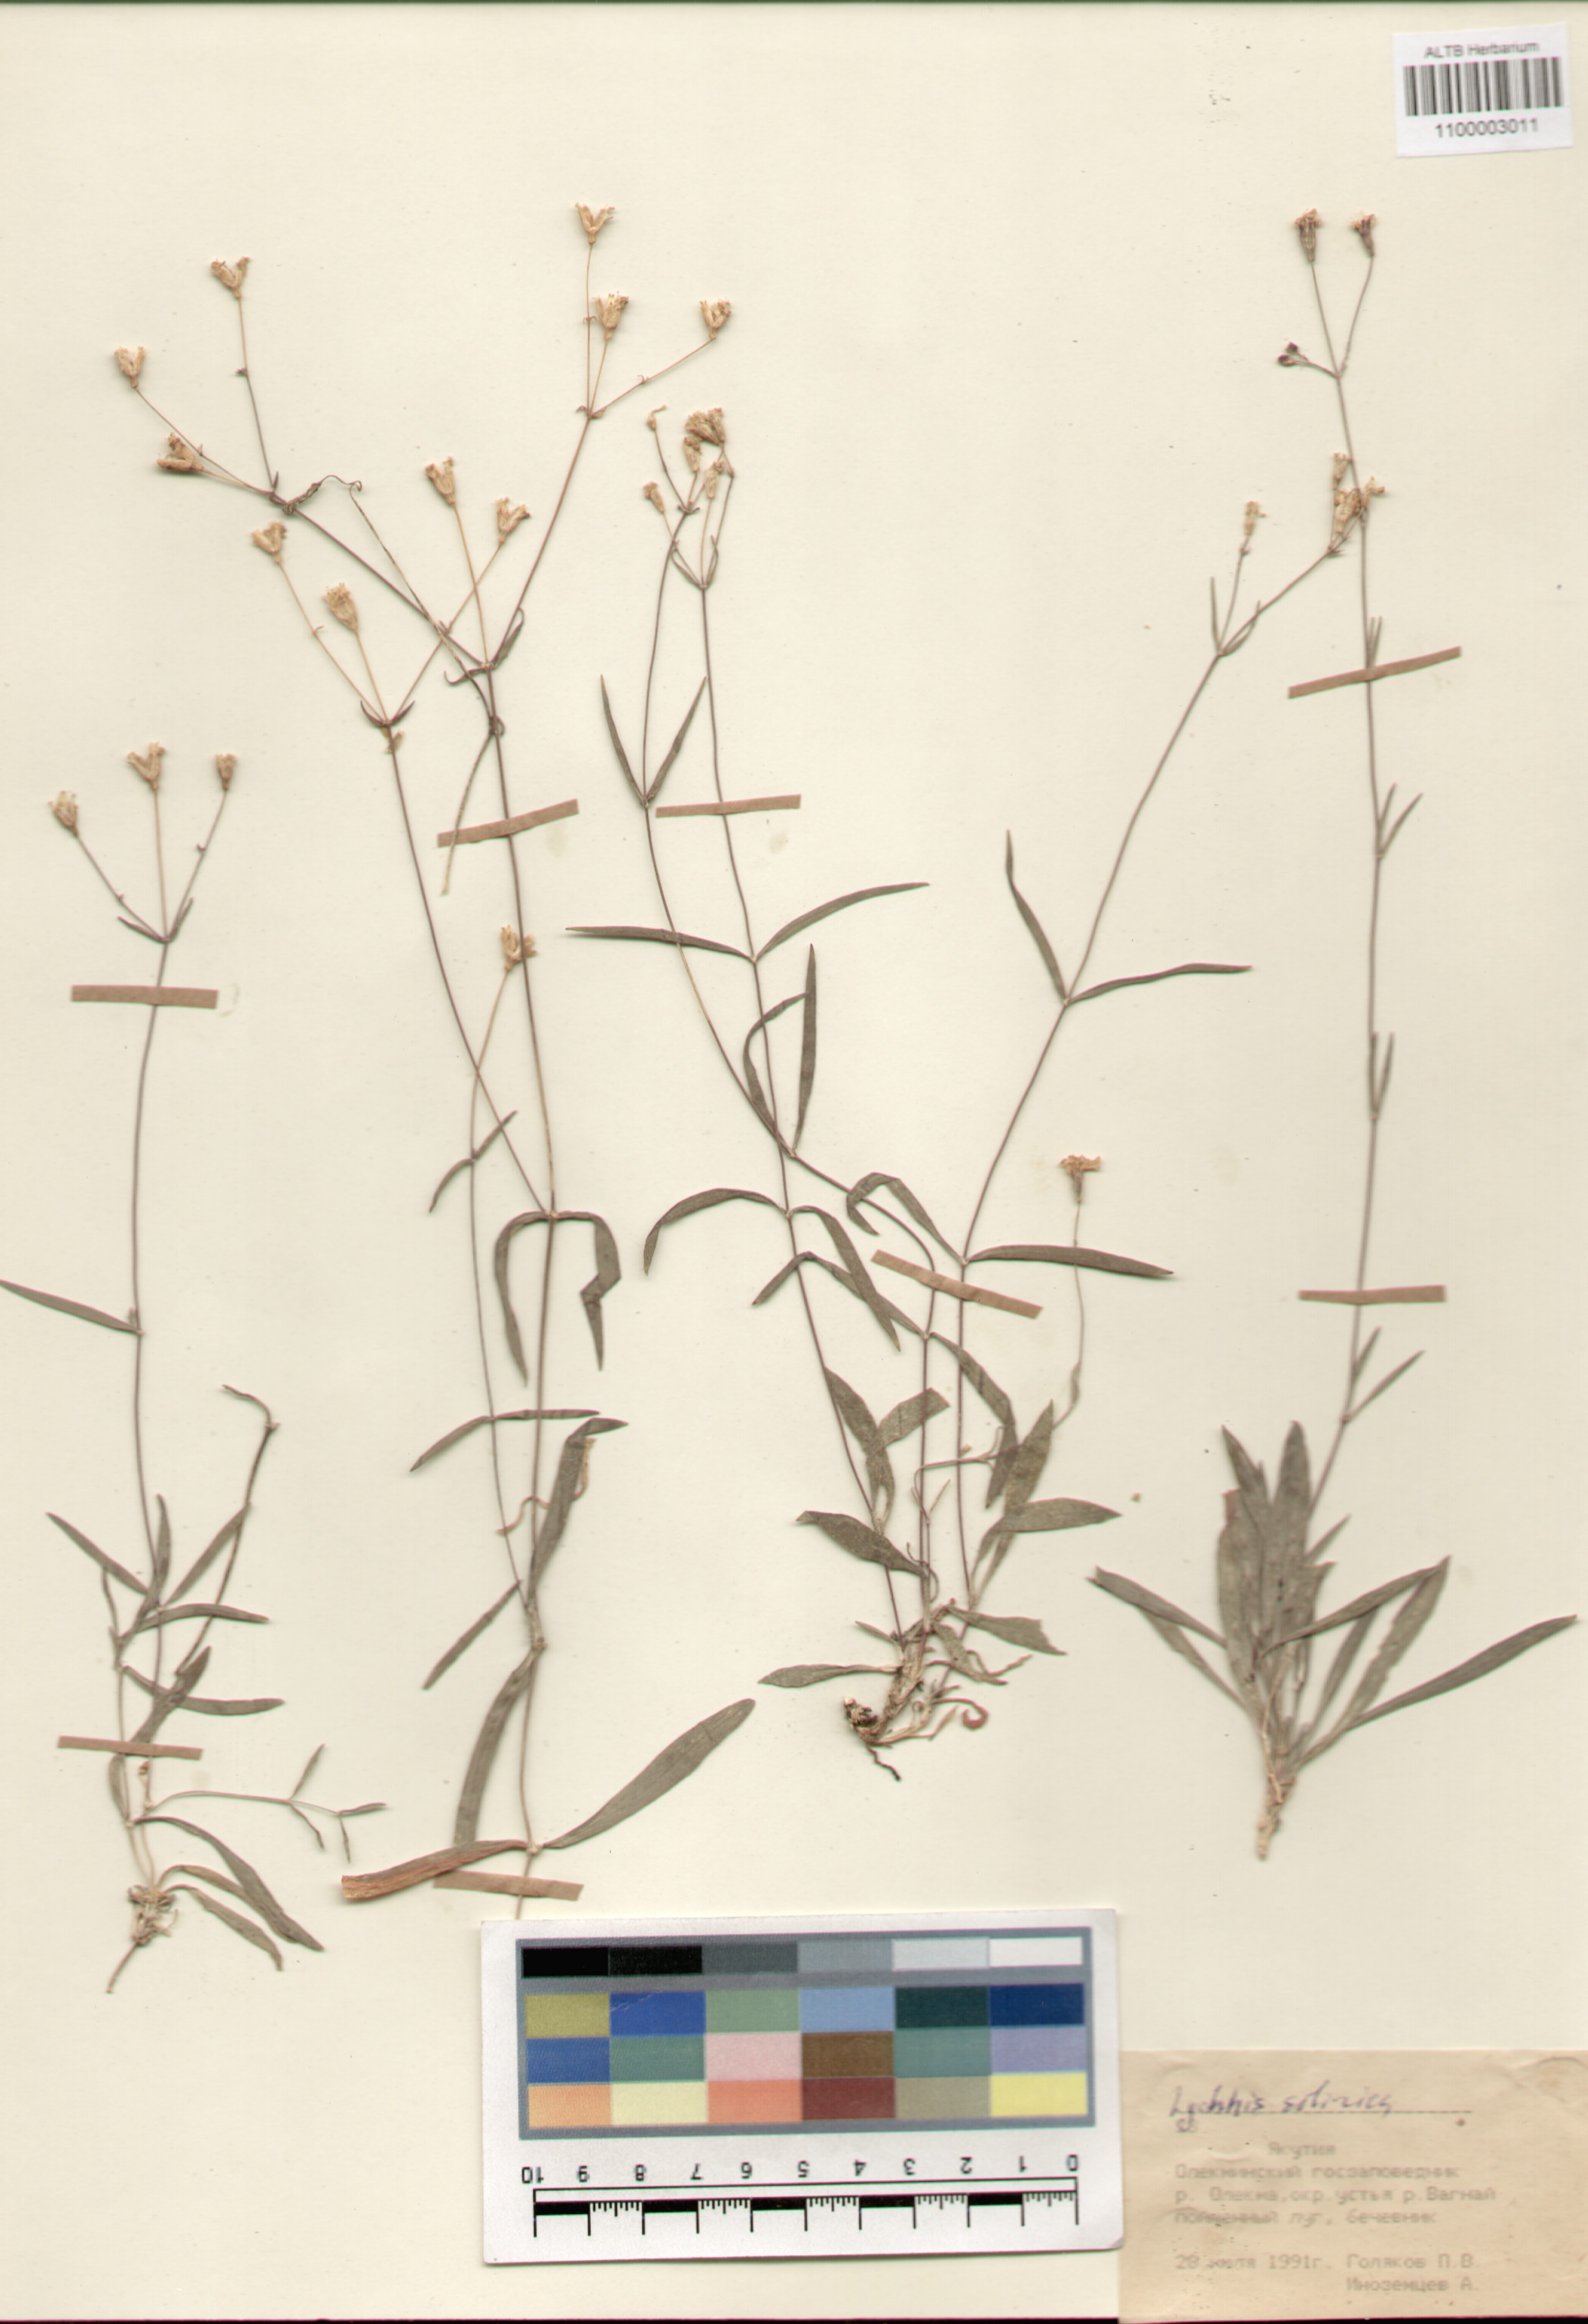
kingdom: Plantae
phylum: Tracheophyta
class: Magnoliopsida
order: Caryophyllales
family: Caryophyllaceae
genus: Silene
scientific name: Silene orientalimongolica
